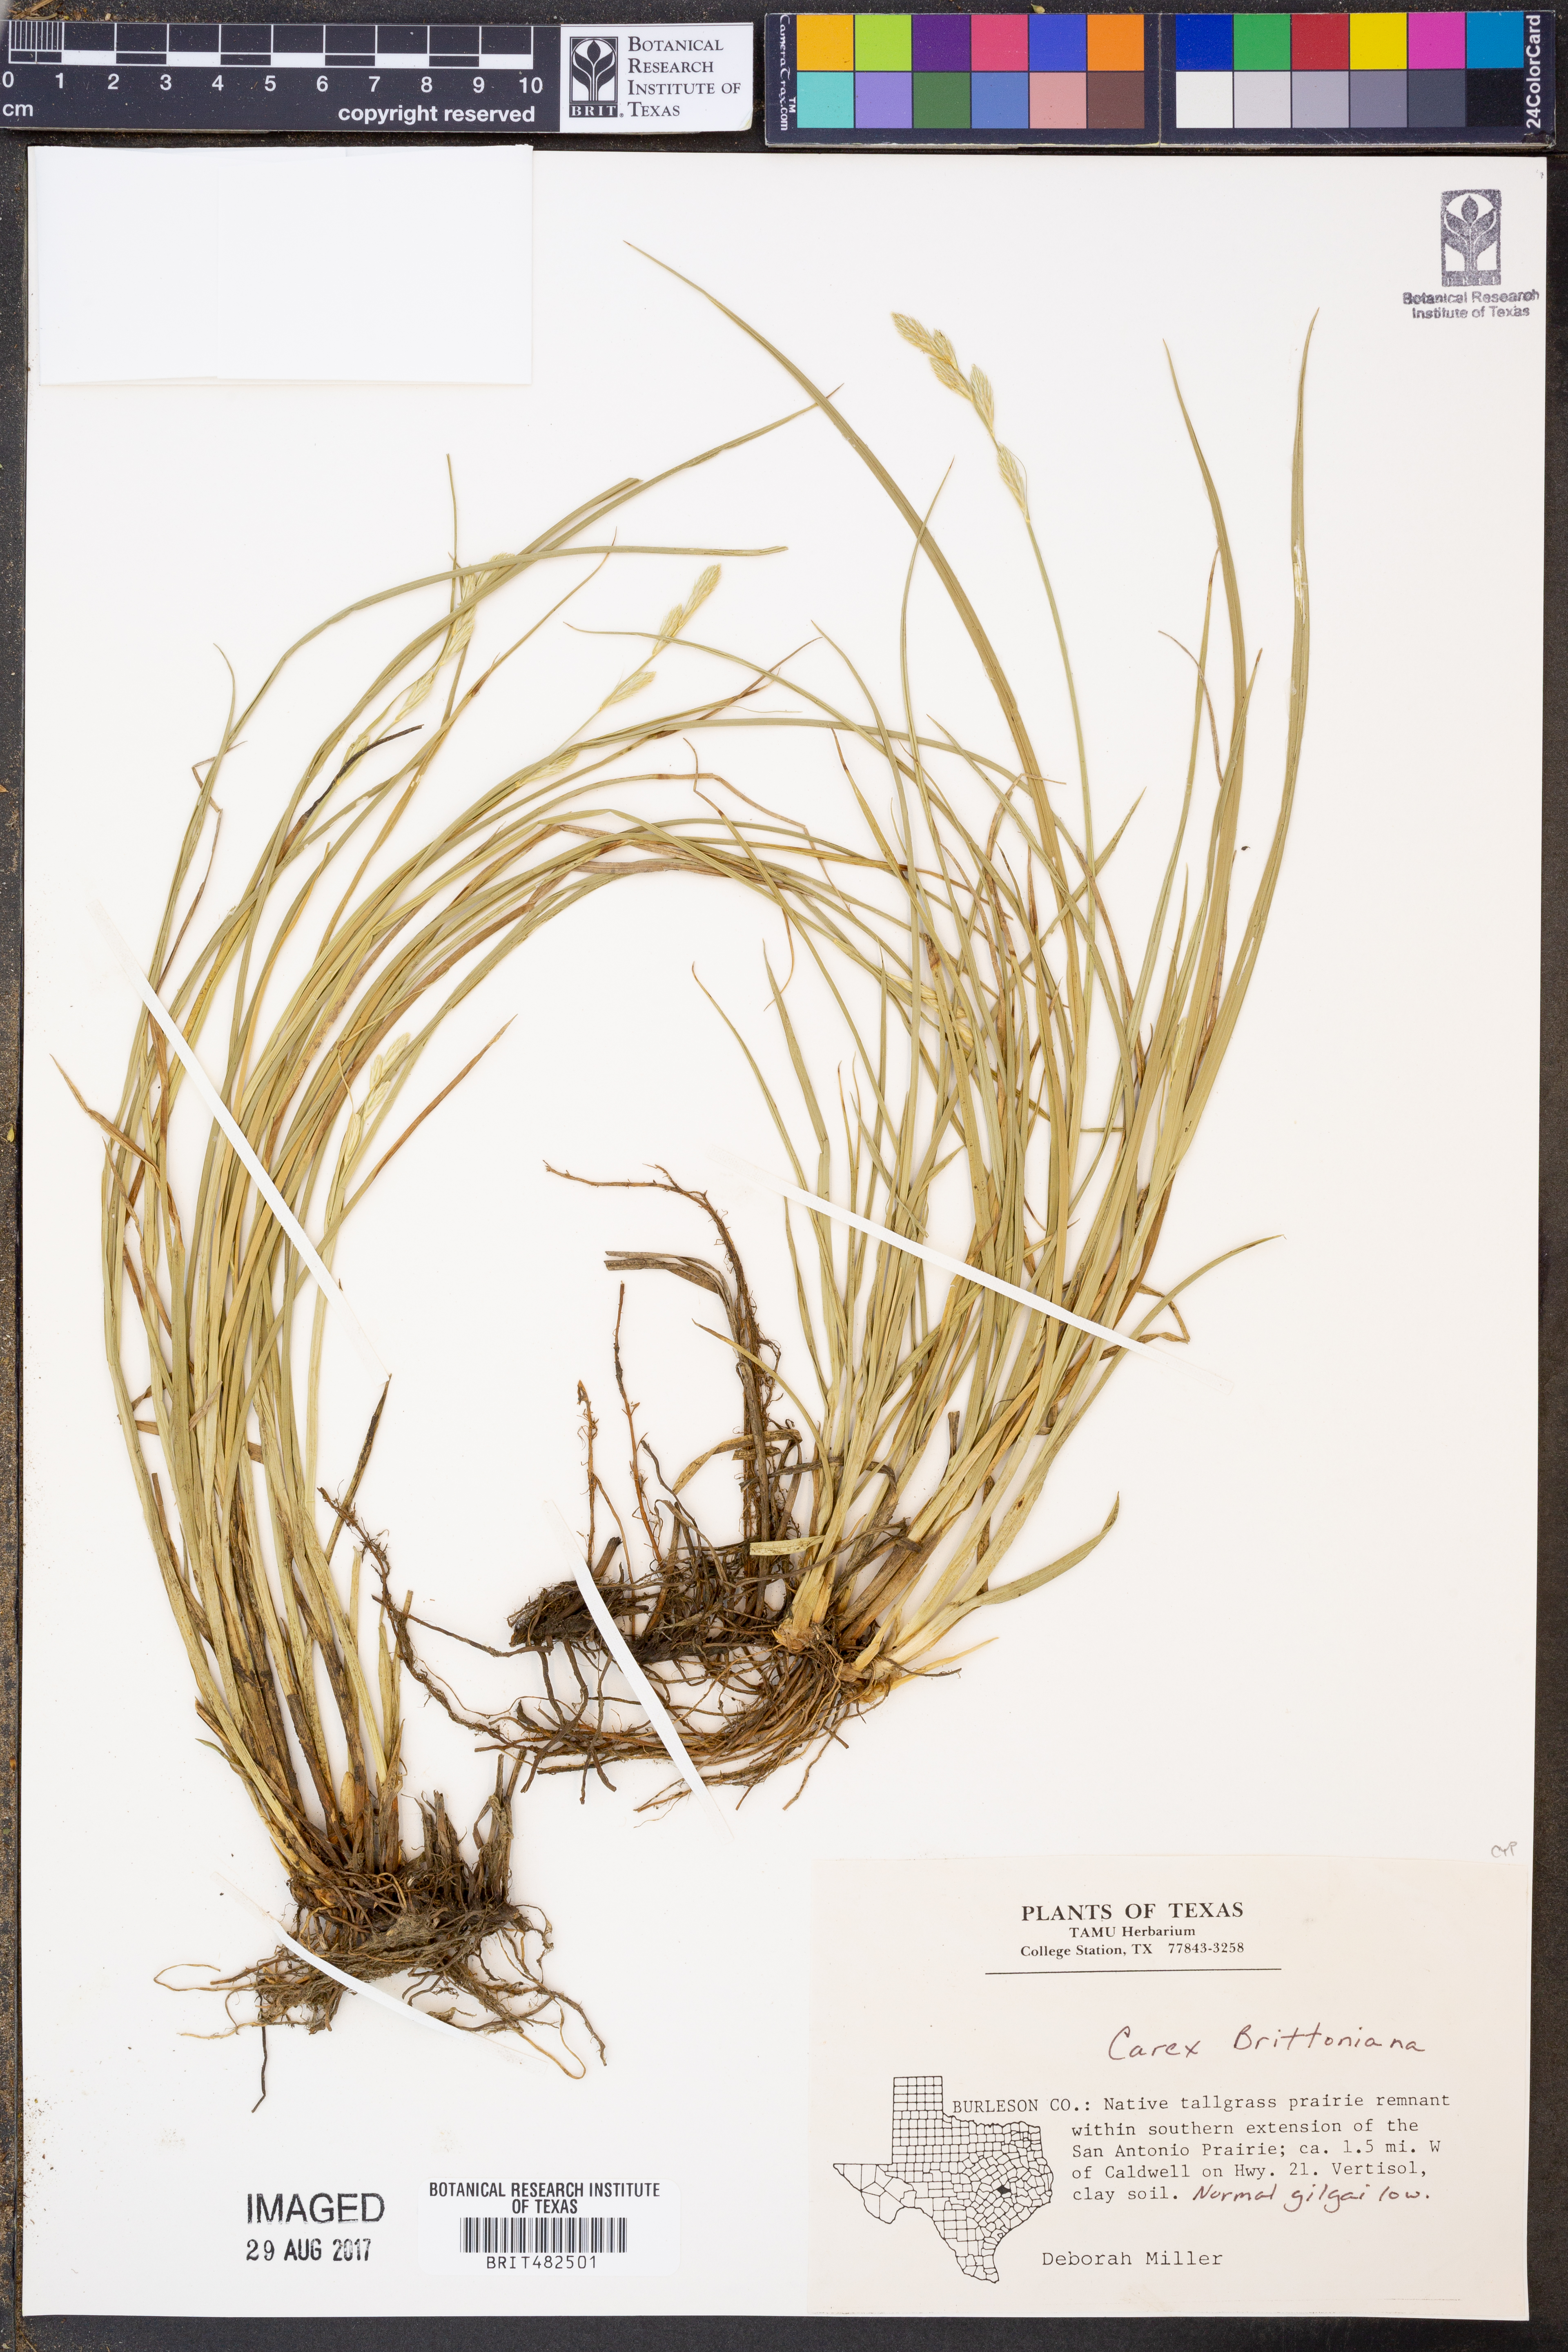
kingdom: Plantae
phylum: Tracheophyta
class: Liliopsida
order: Poales
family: Cyperaceae
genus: Carex
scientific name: Carex tetrastachya
